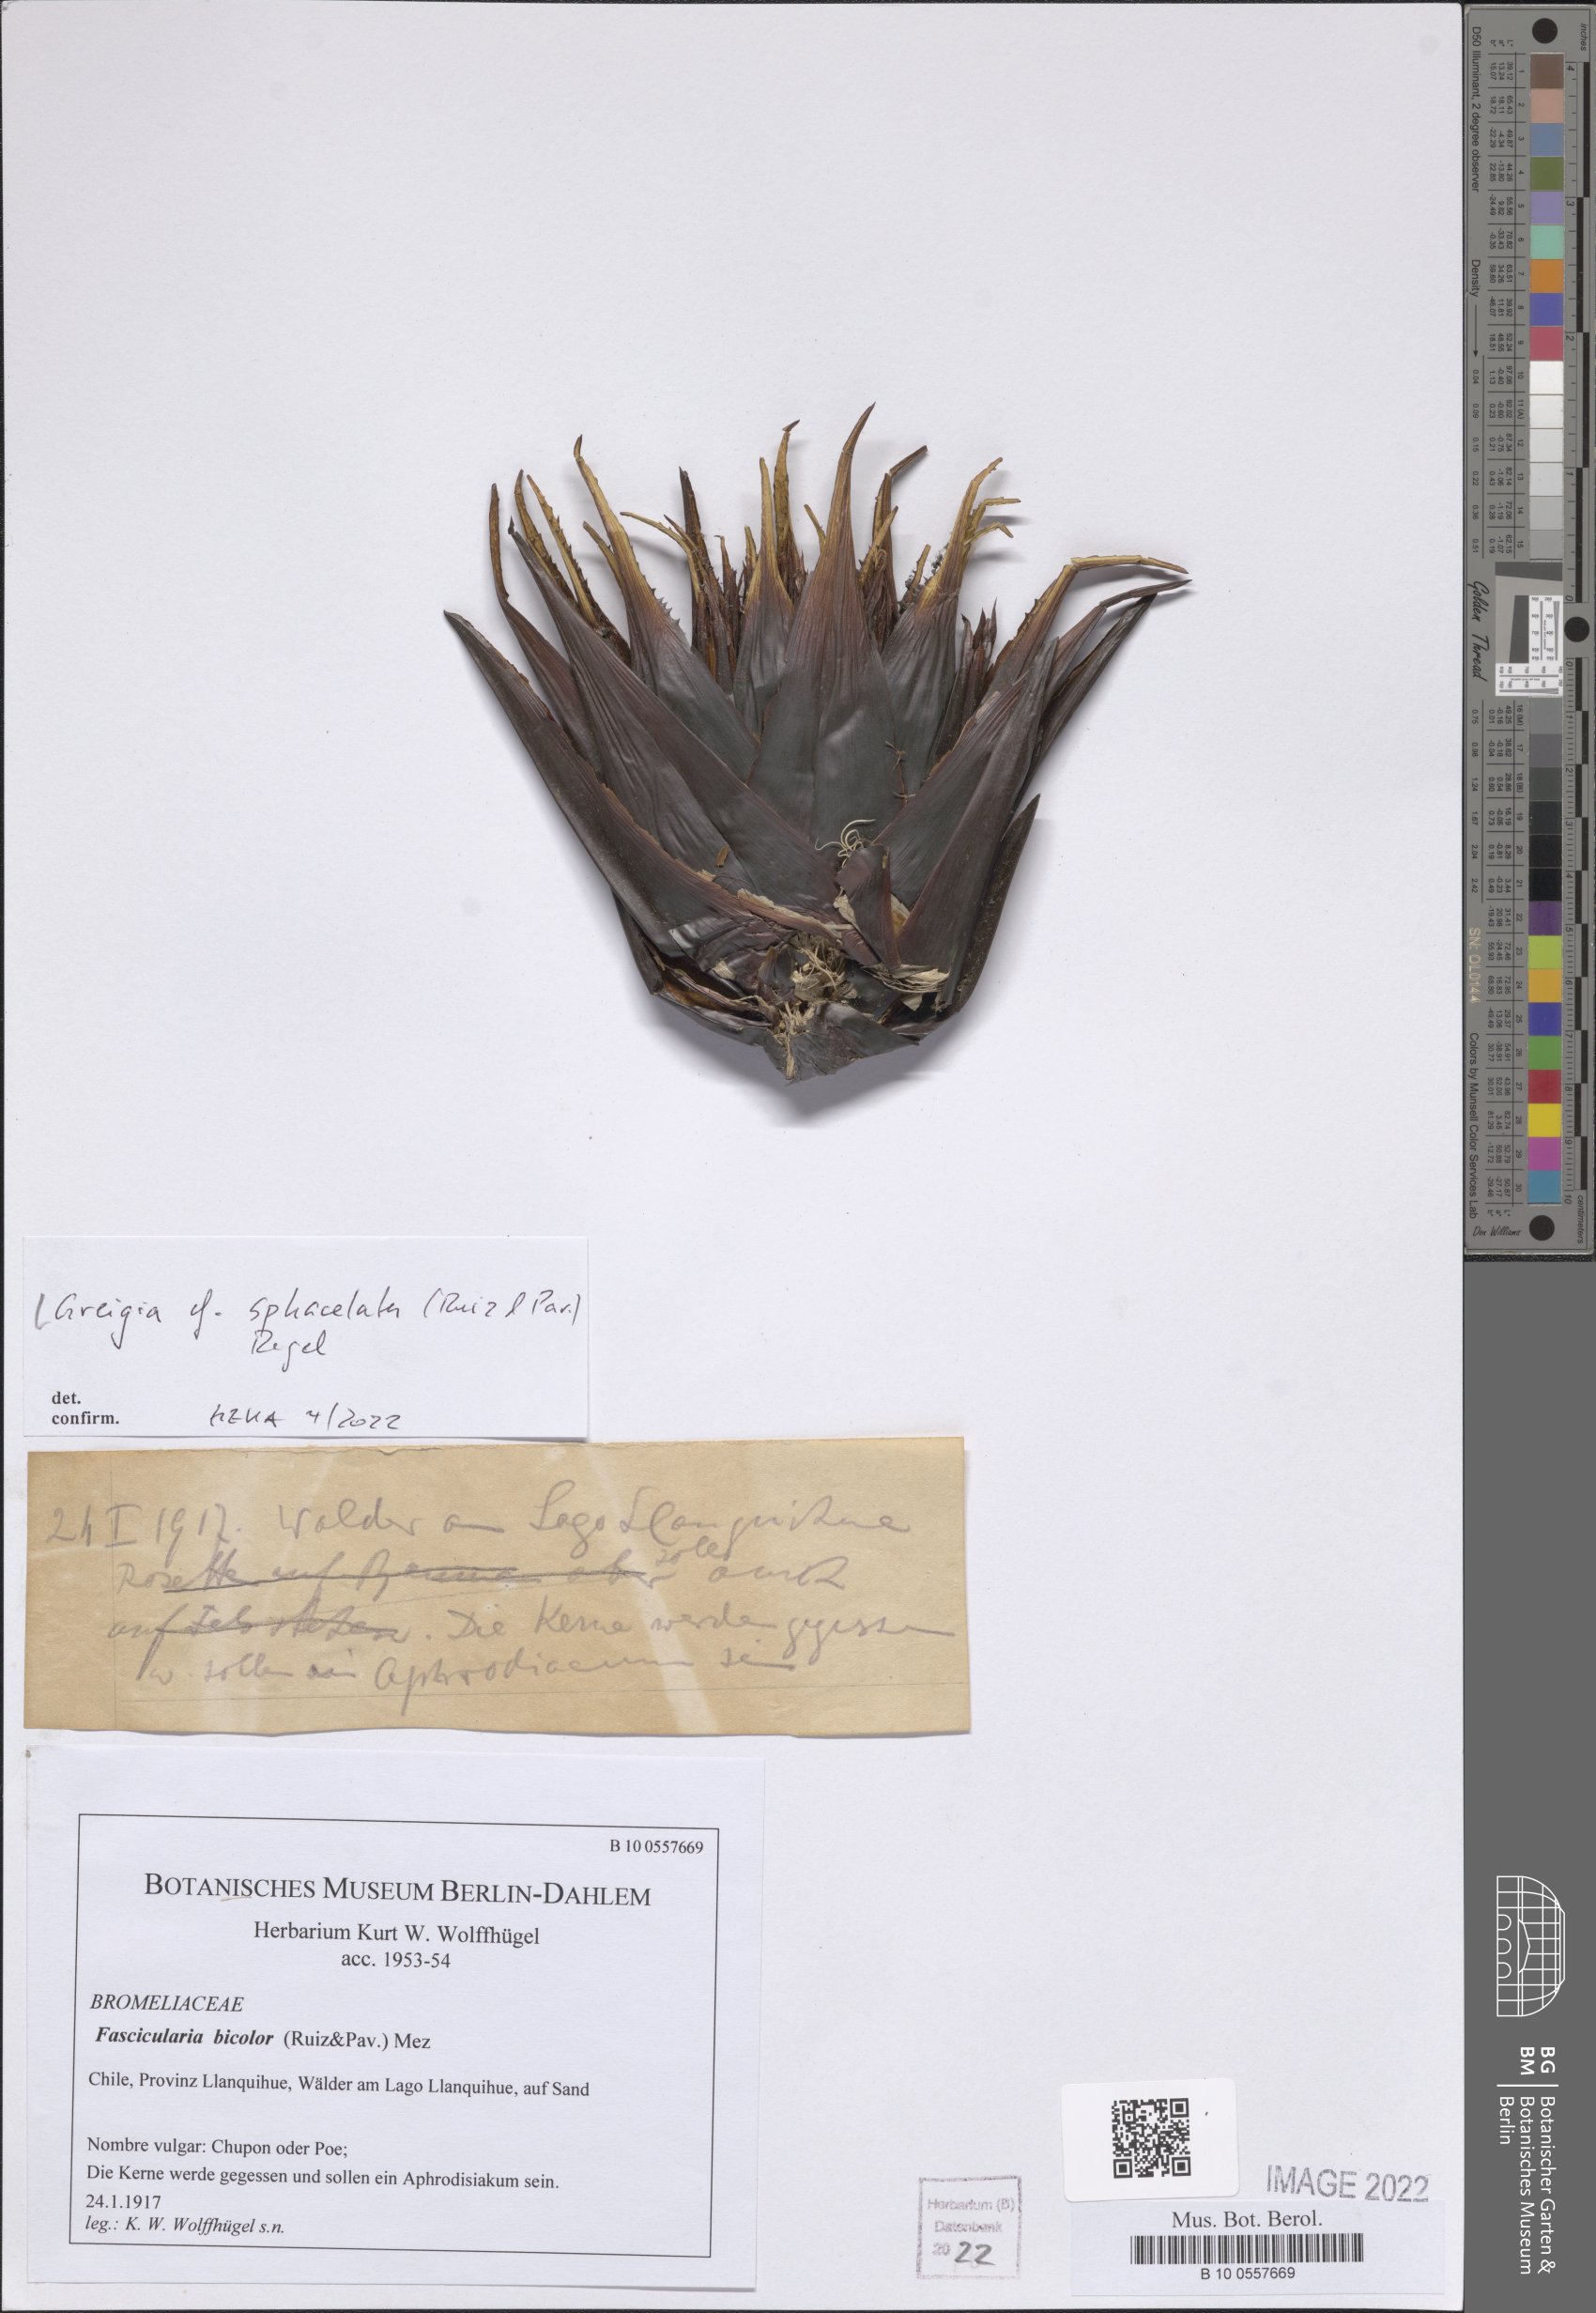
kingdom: Plantae
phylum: Tracheophyta
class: Liliopsida
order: Poales
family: Bromeliaceae
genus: Greigia
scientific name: Greigia sphacelata
